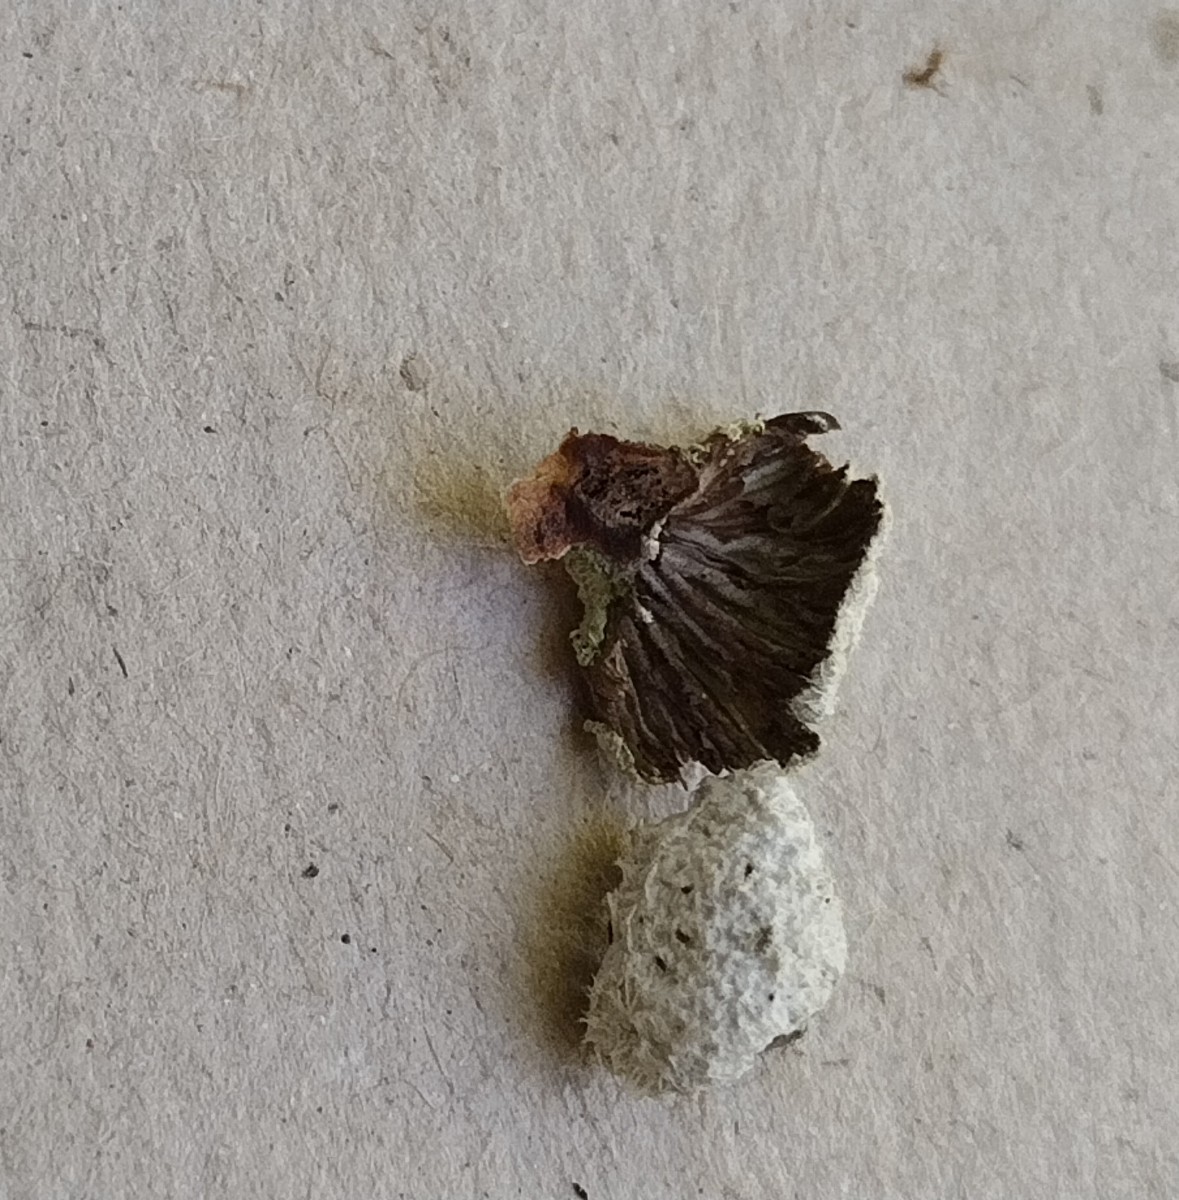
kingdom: Fungi
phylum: Basidiomycota
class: Agaricomycetes
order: Agaricales
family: Schizophyllaceae
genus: Schizophyllum
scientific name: Schizophyllum commune
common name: kløvblad
